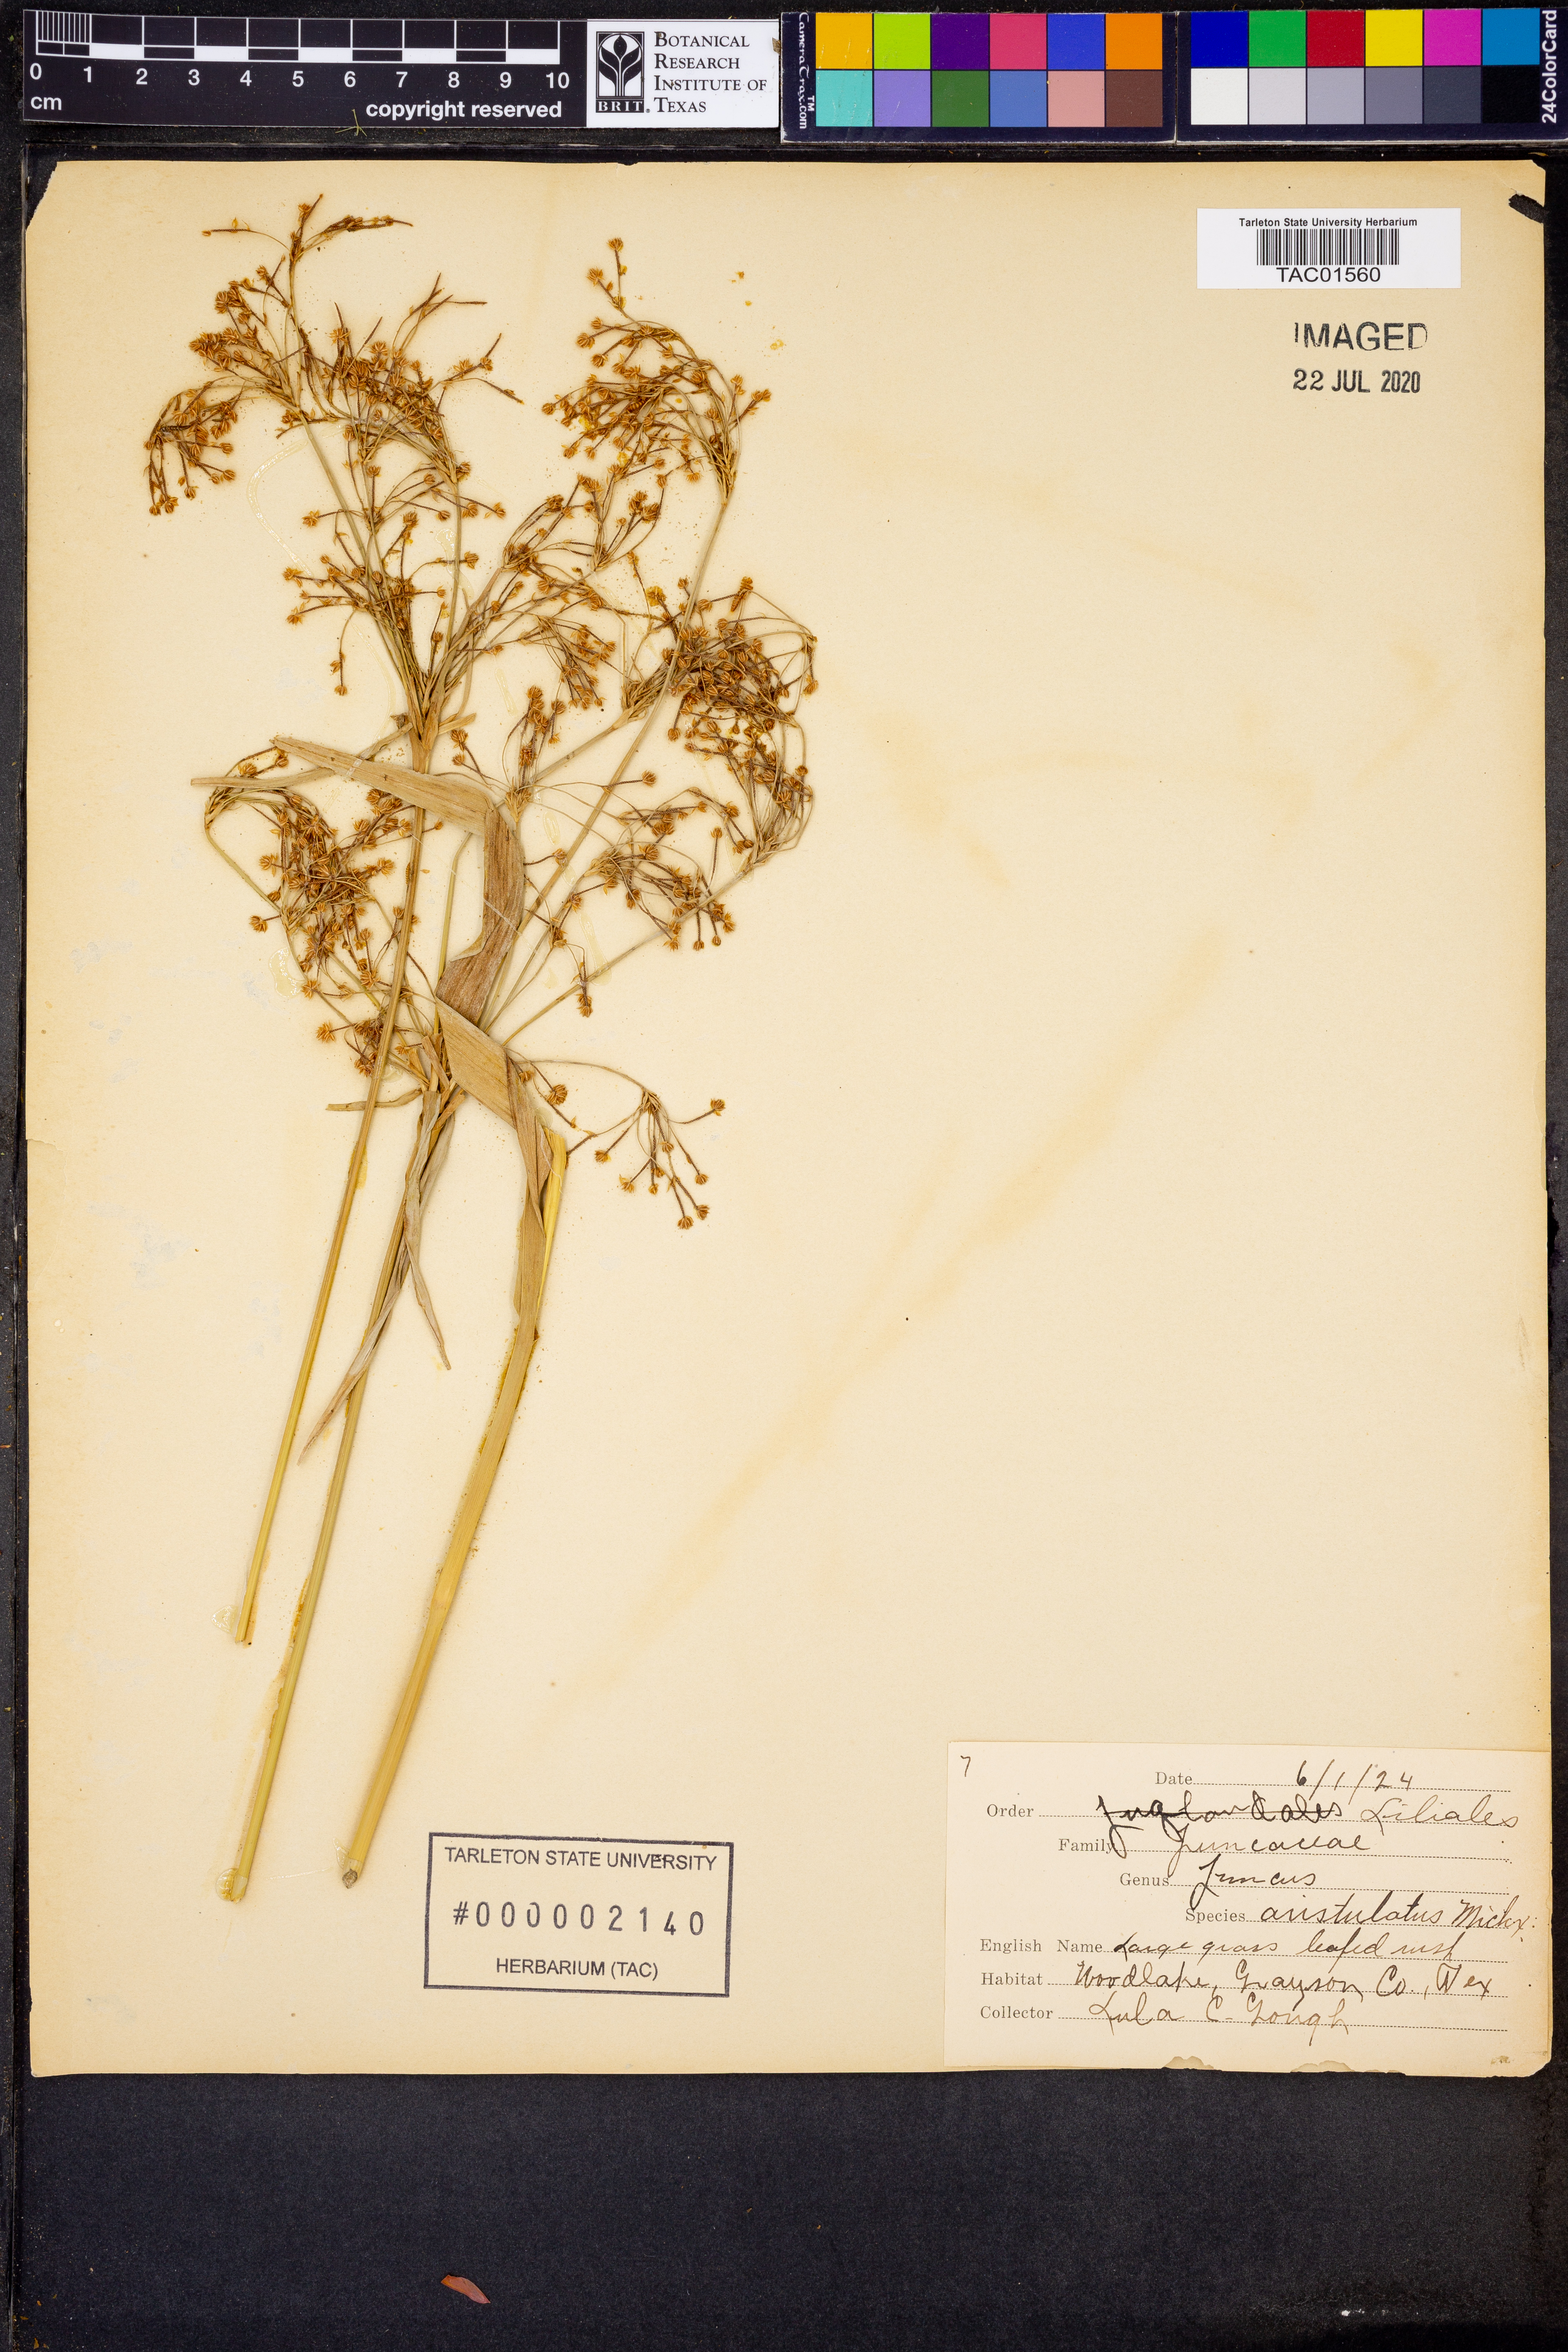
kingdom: Plantae
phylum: Tracheophyta
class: Liliopsida
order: Poales
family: Juncaceae
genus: Juncus
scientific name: Juncus marginatus
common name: Grass-leaf rush
